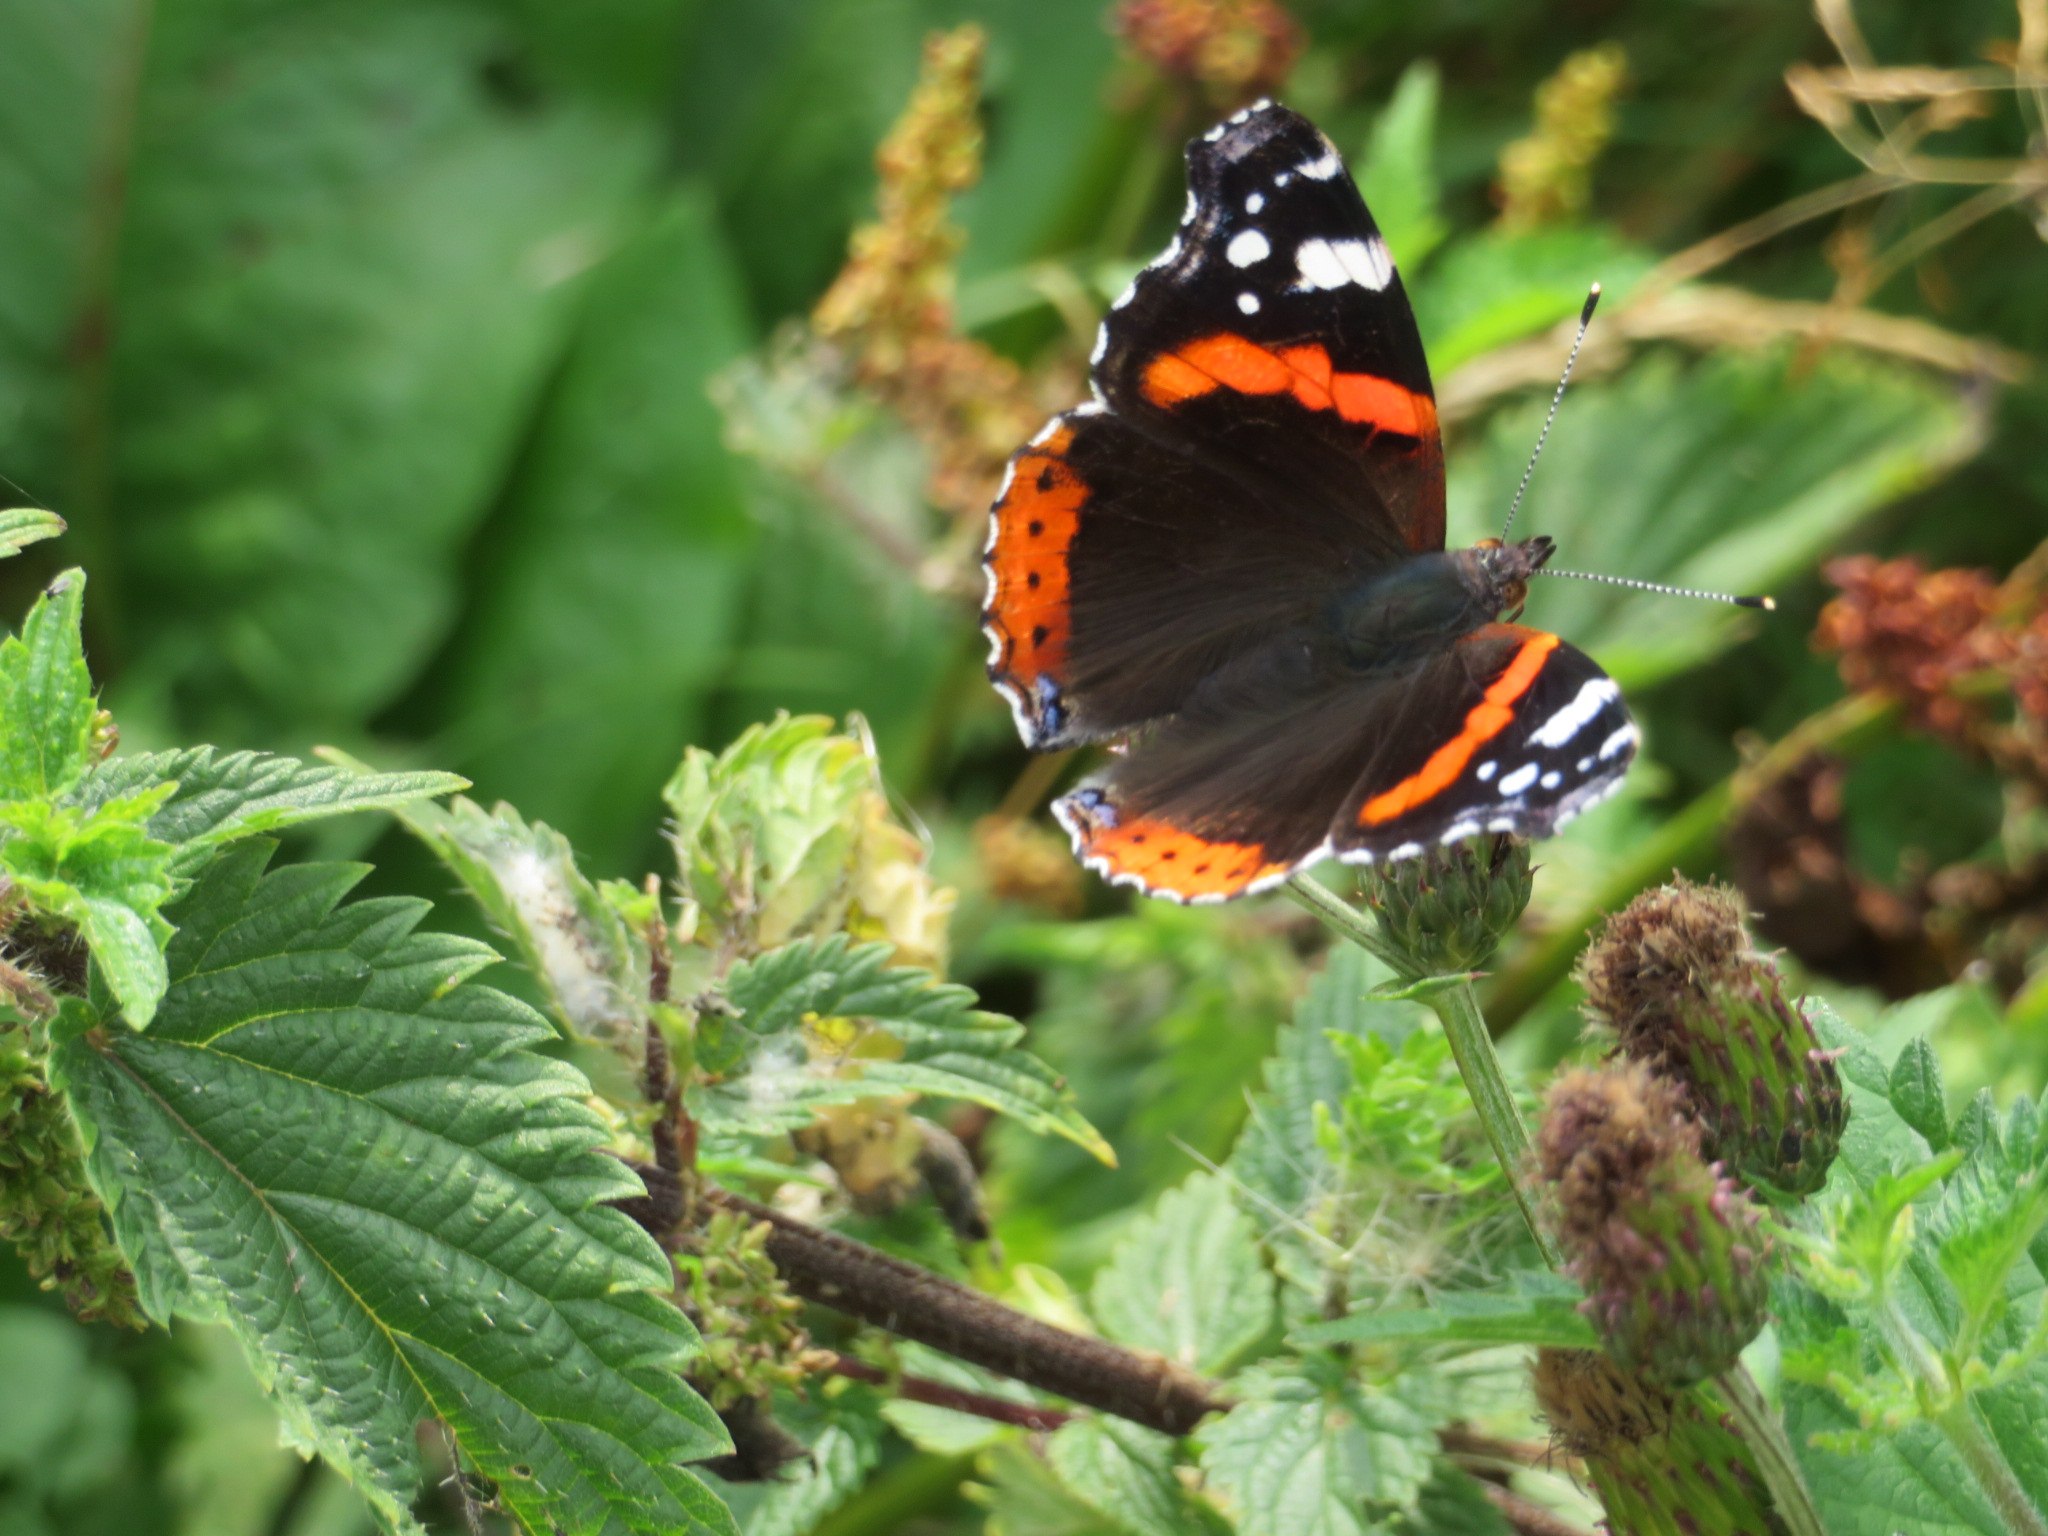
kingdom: Animalia
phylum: Arthropoda
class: Insecta
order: Lepidoptera
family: Nymphalidae
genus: Vanessa
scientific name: Vanessa atalanta
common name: Admiral
